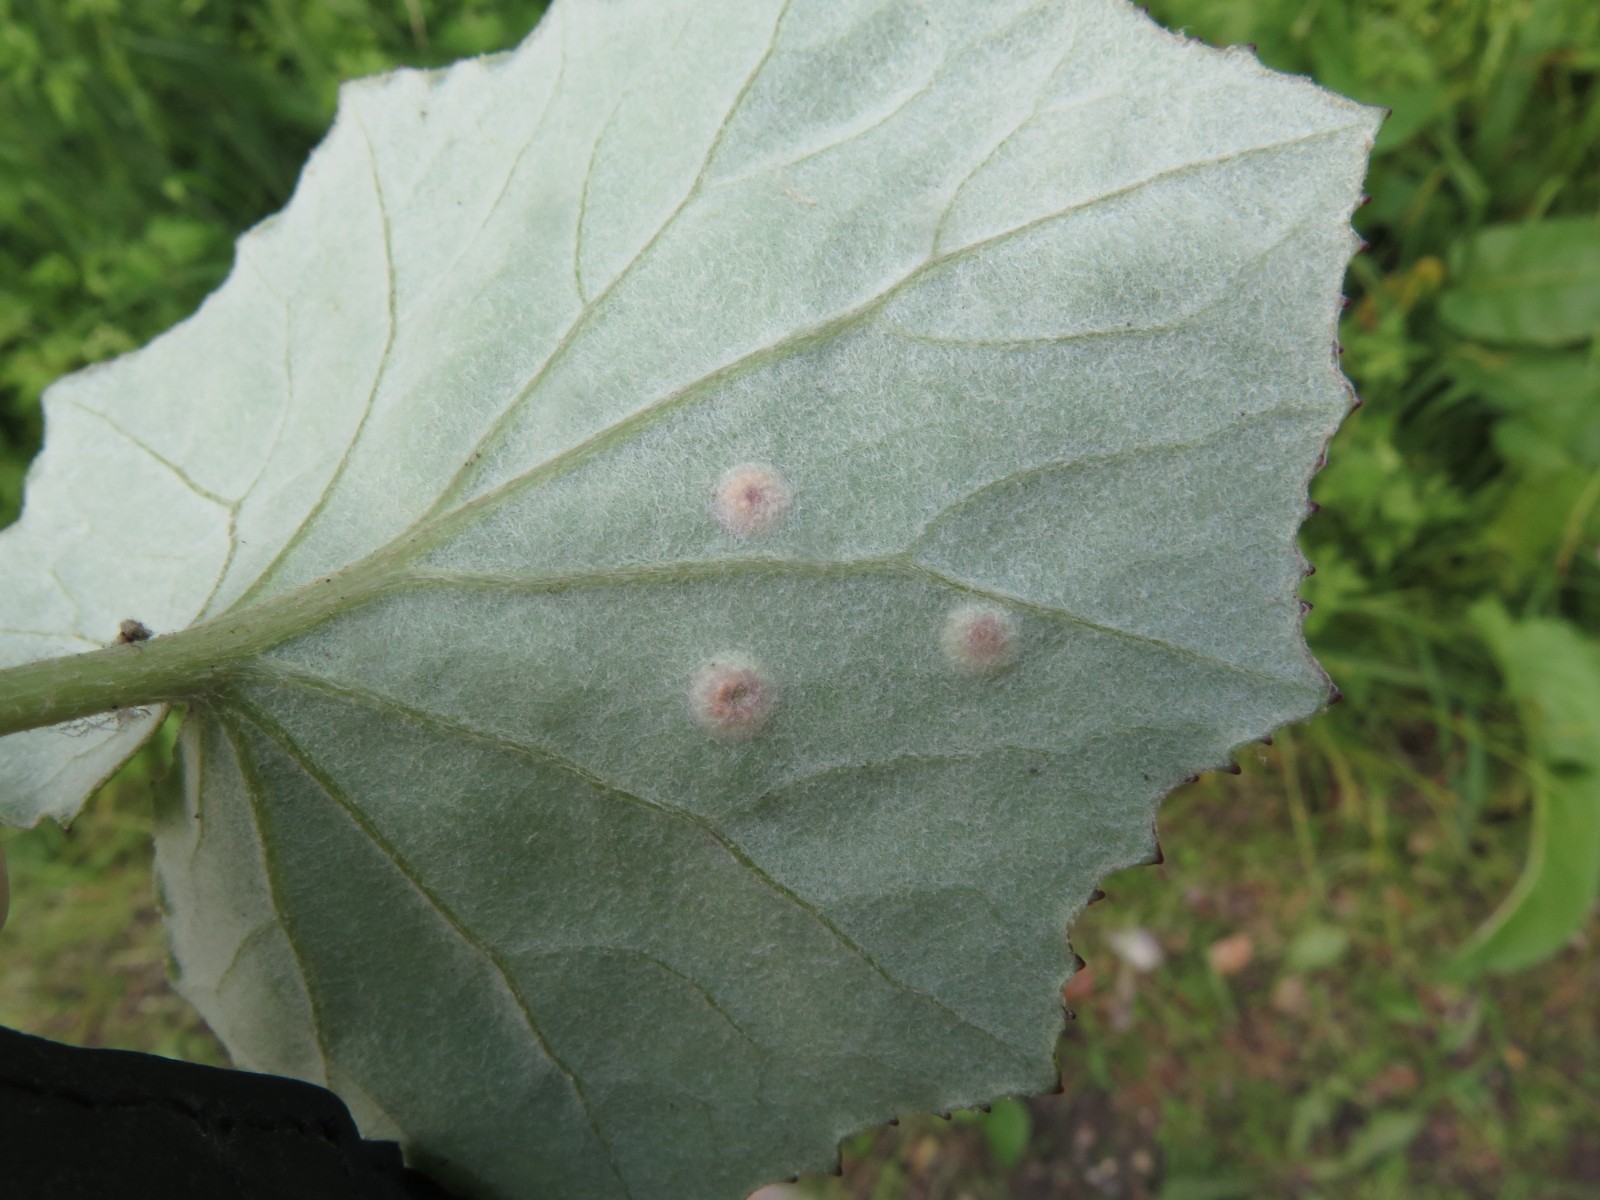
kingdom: Fungi
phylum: Basidiomycota
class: Pucciniomycetes
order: Pucciniales
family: Pucciniaceae
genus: Puccinia
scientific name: Puccinia poarum
